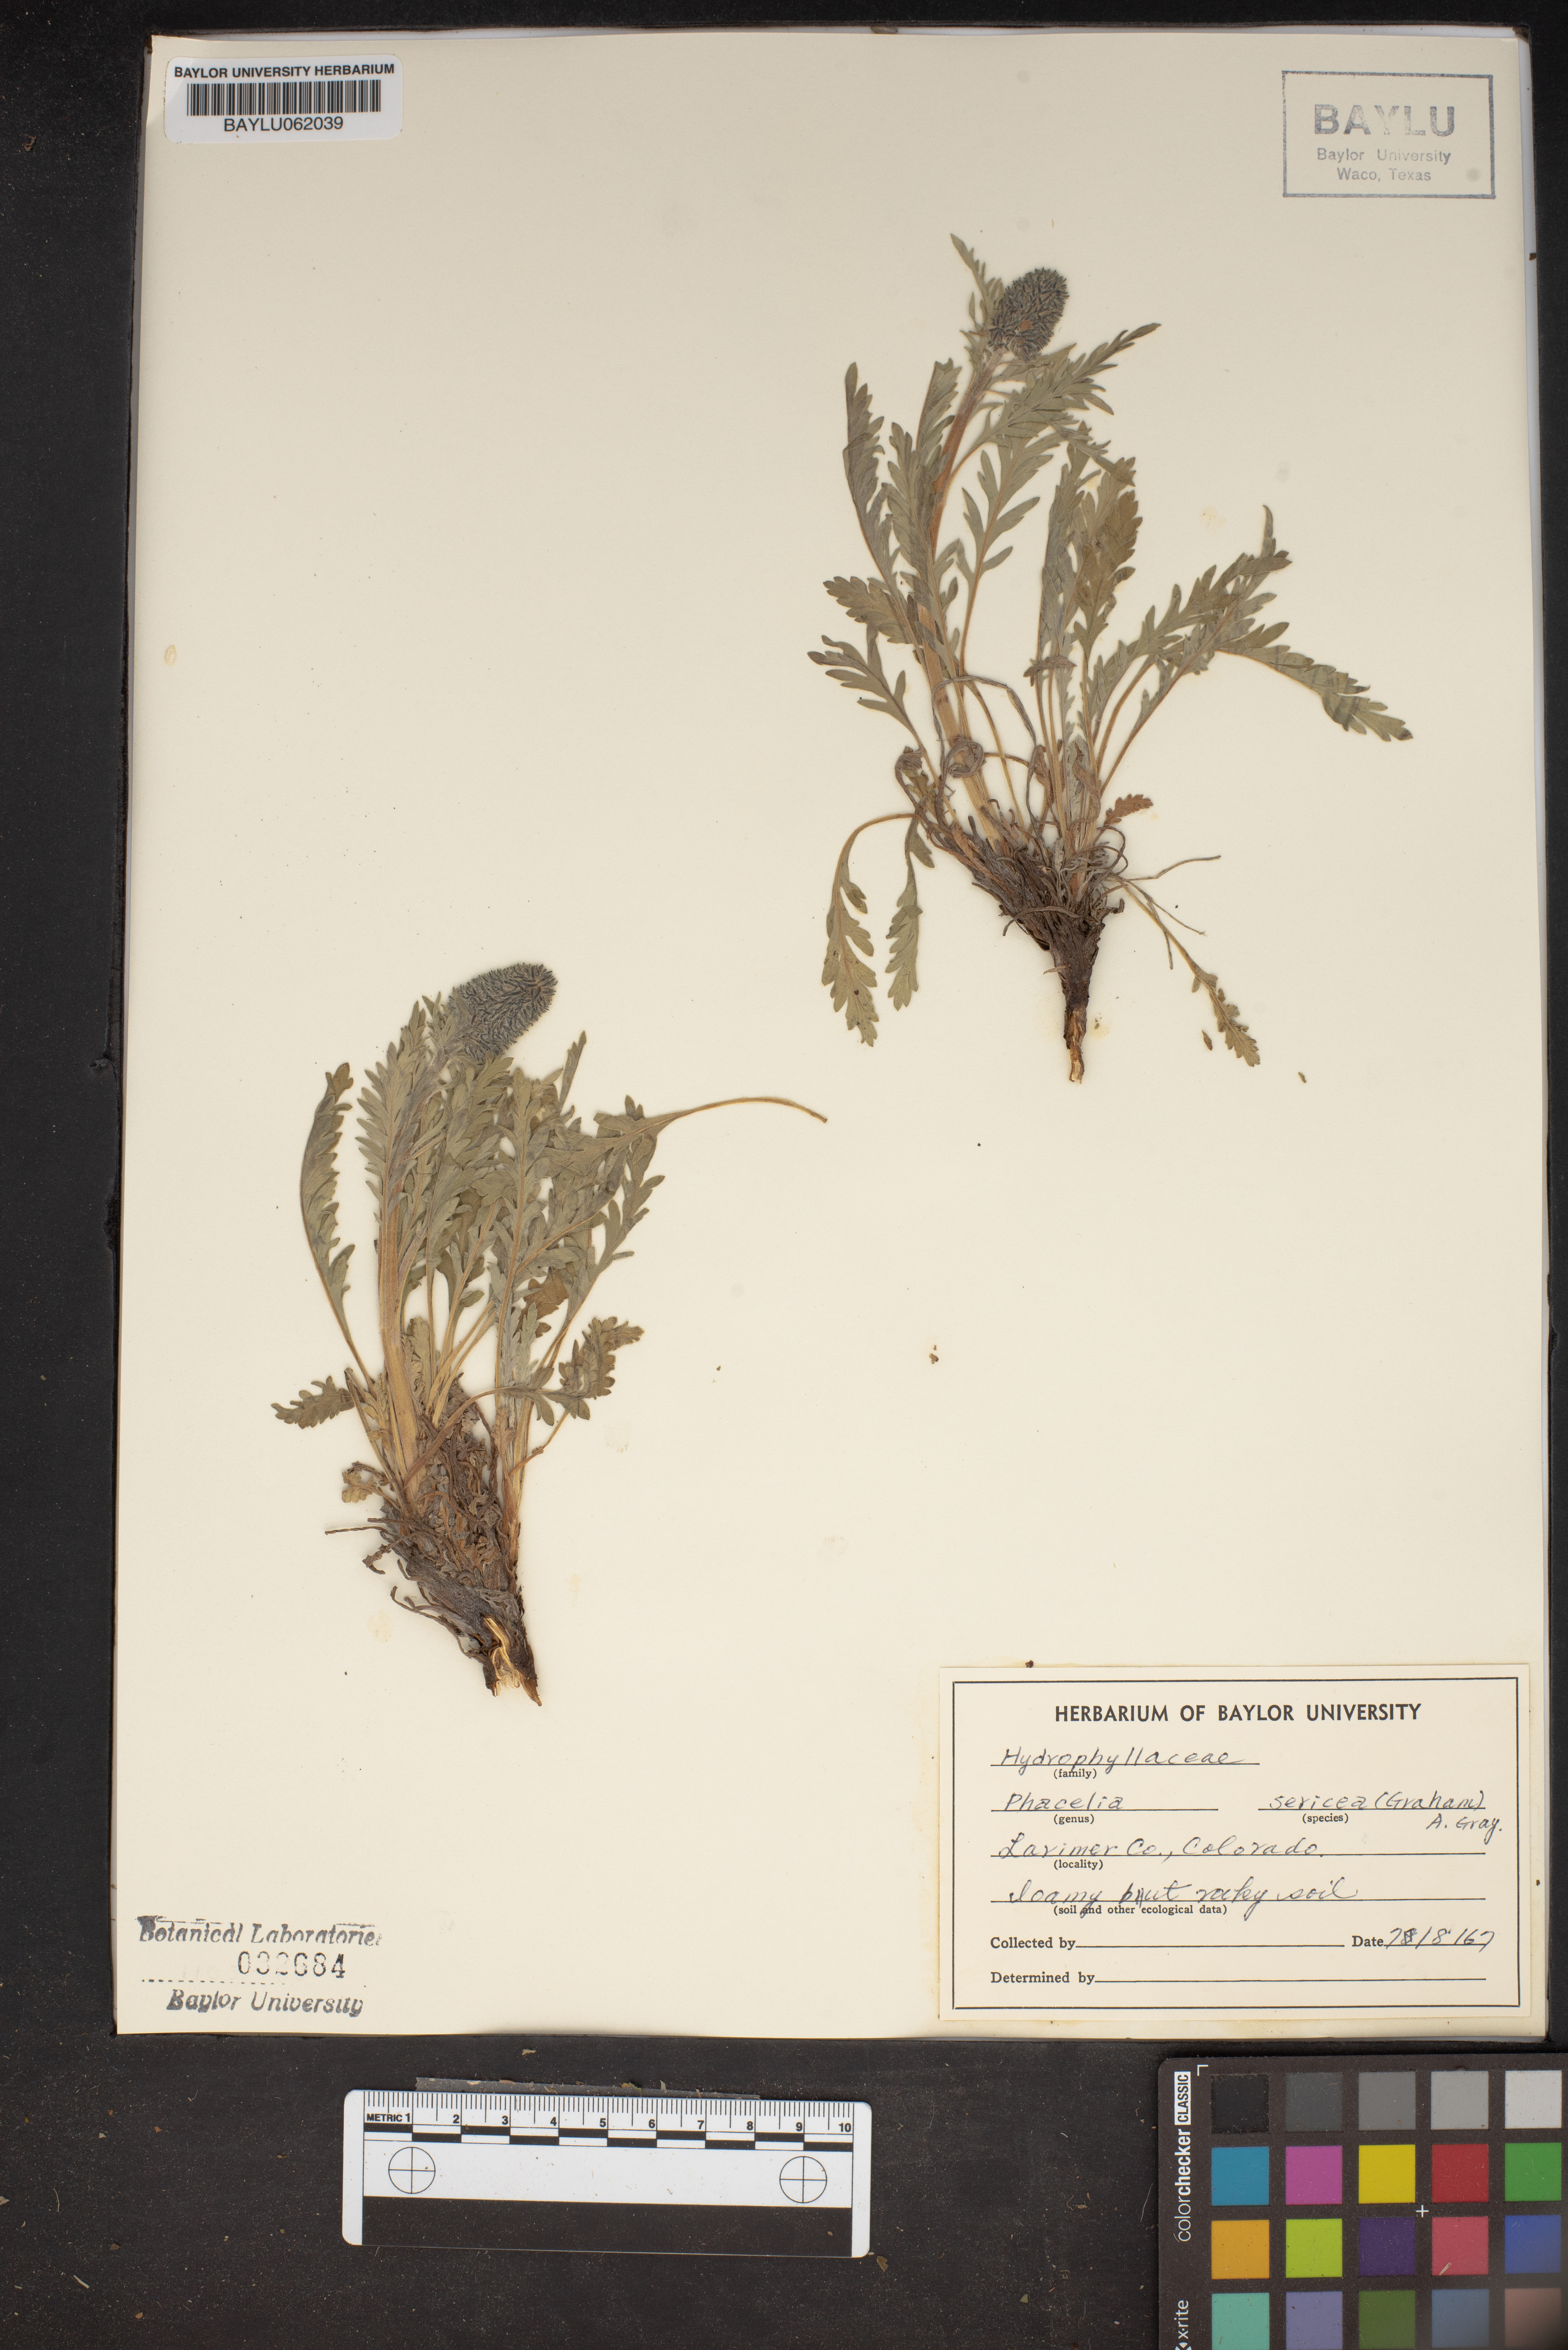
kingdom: Plantae
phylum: Tracheophyta
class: Magnoliopsida
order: Boraginales
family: Hydrophyllaceae
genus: Phacelia
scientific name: Phacelia sericea
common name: Silky phacelia
